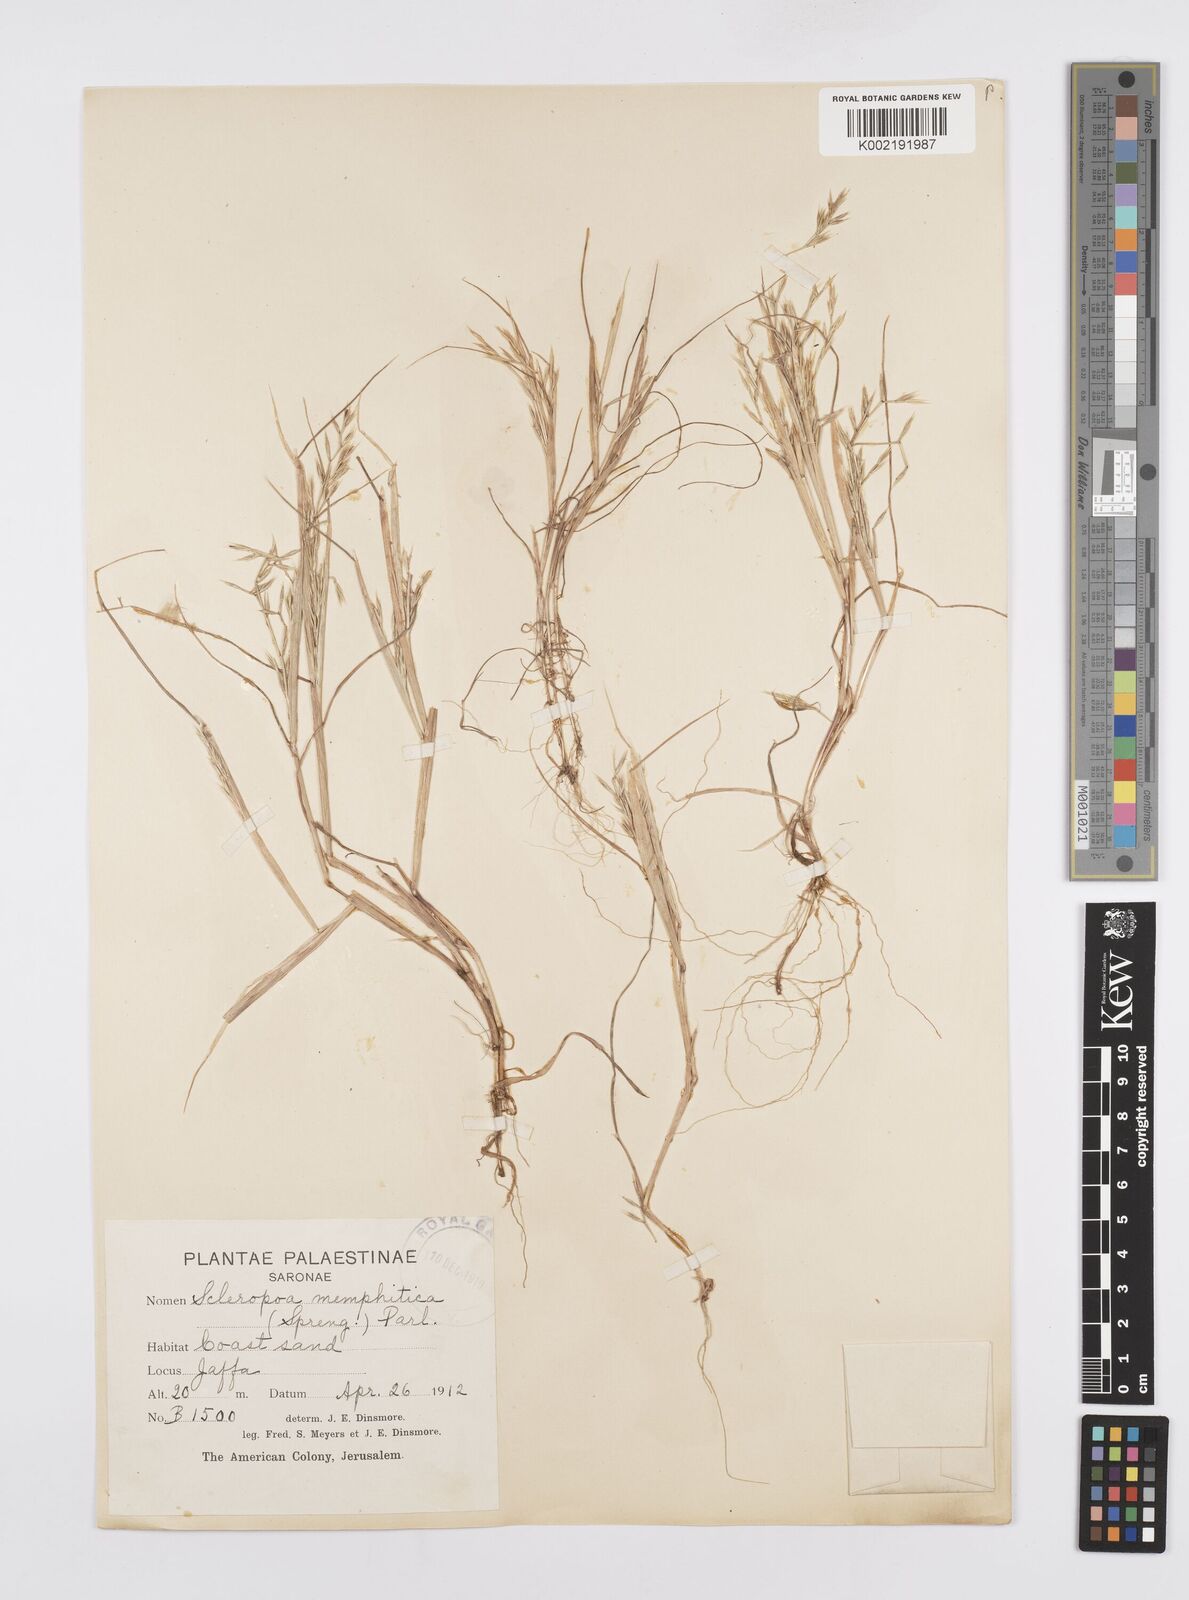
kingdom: Plantae
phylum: Tracheophyta
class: Liliopsida
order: Poales
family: Poaceae
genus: Cutandia
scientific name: Cutandia memphitica
